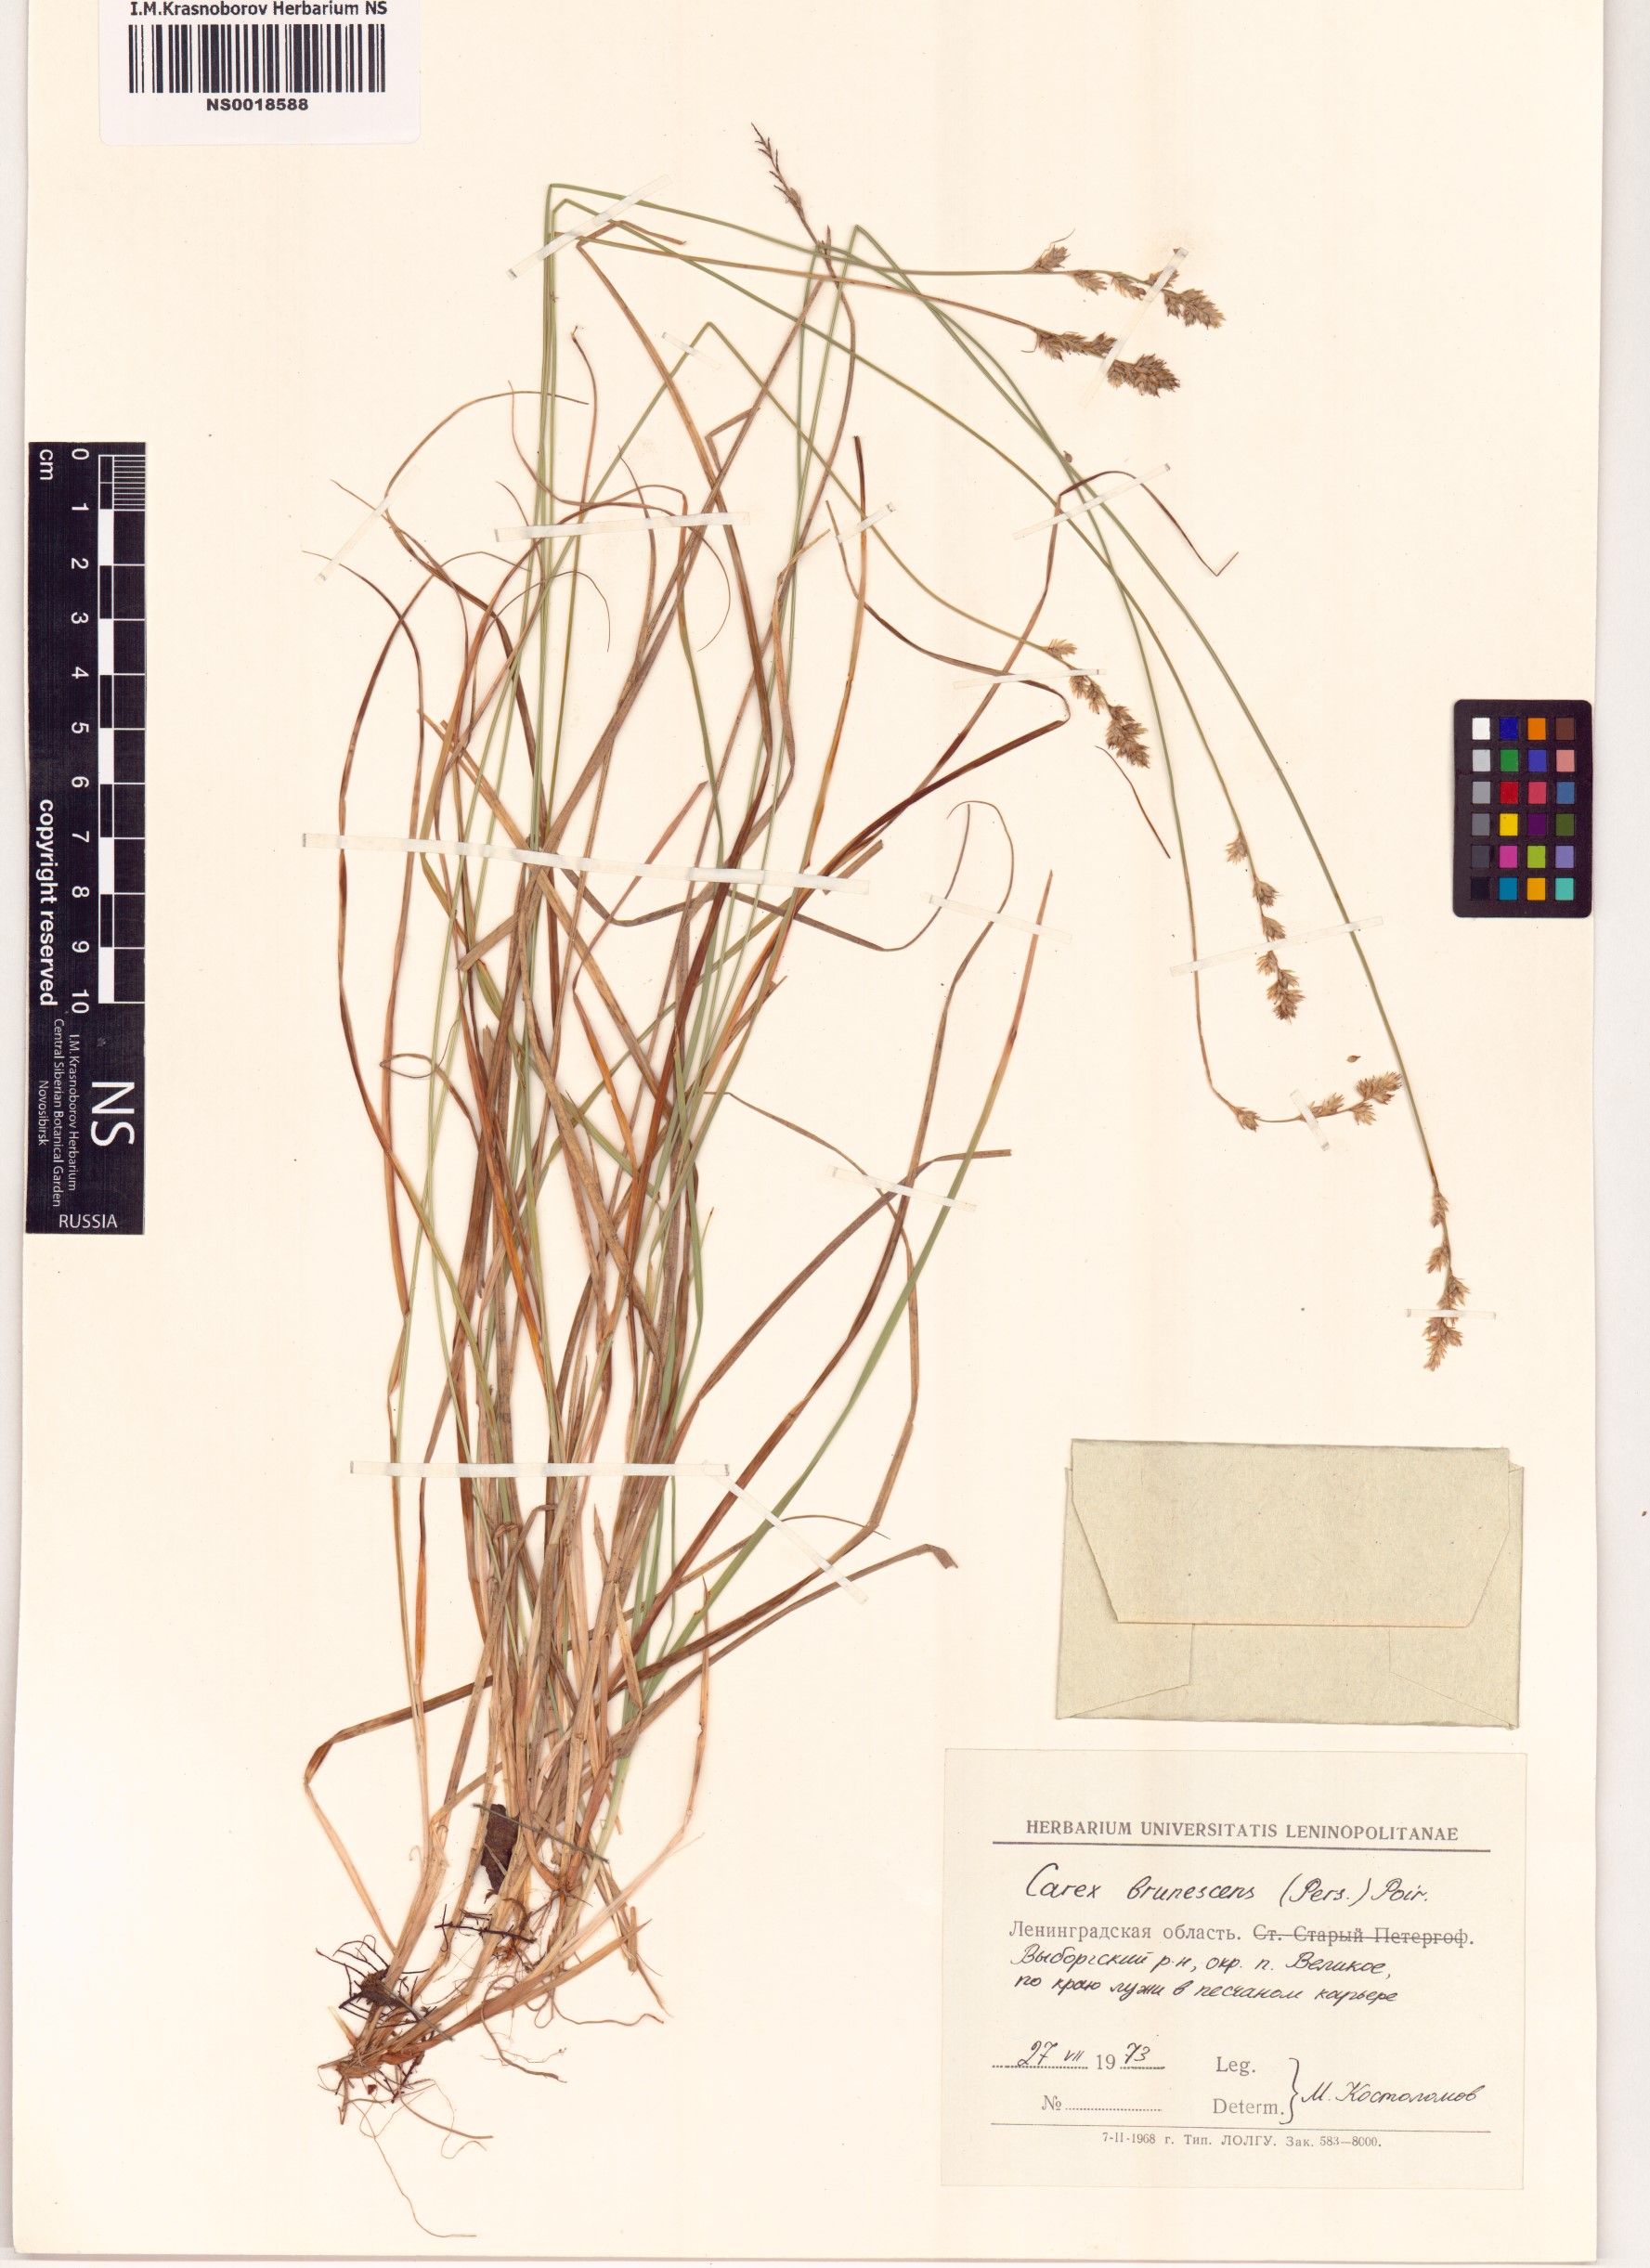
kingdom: Plantae
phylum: Tracheophyta
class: Liliopsida
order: Poales
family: Cyperaceae
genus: Carex
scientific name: Carex brunnescens
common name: Brown sedge
